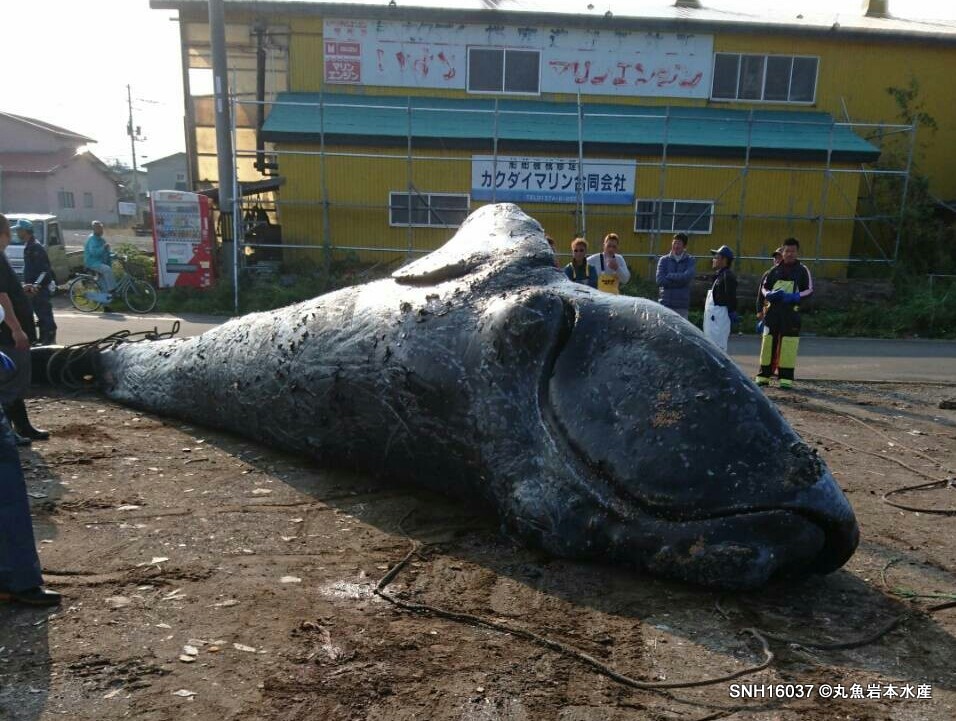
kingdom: Animalia
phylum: Chordata
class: Mammalia
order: Cetacea
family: Balaenidae
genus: Eubalaena
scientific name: Eubalaena japonica
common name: Right whale
